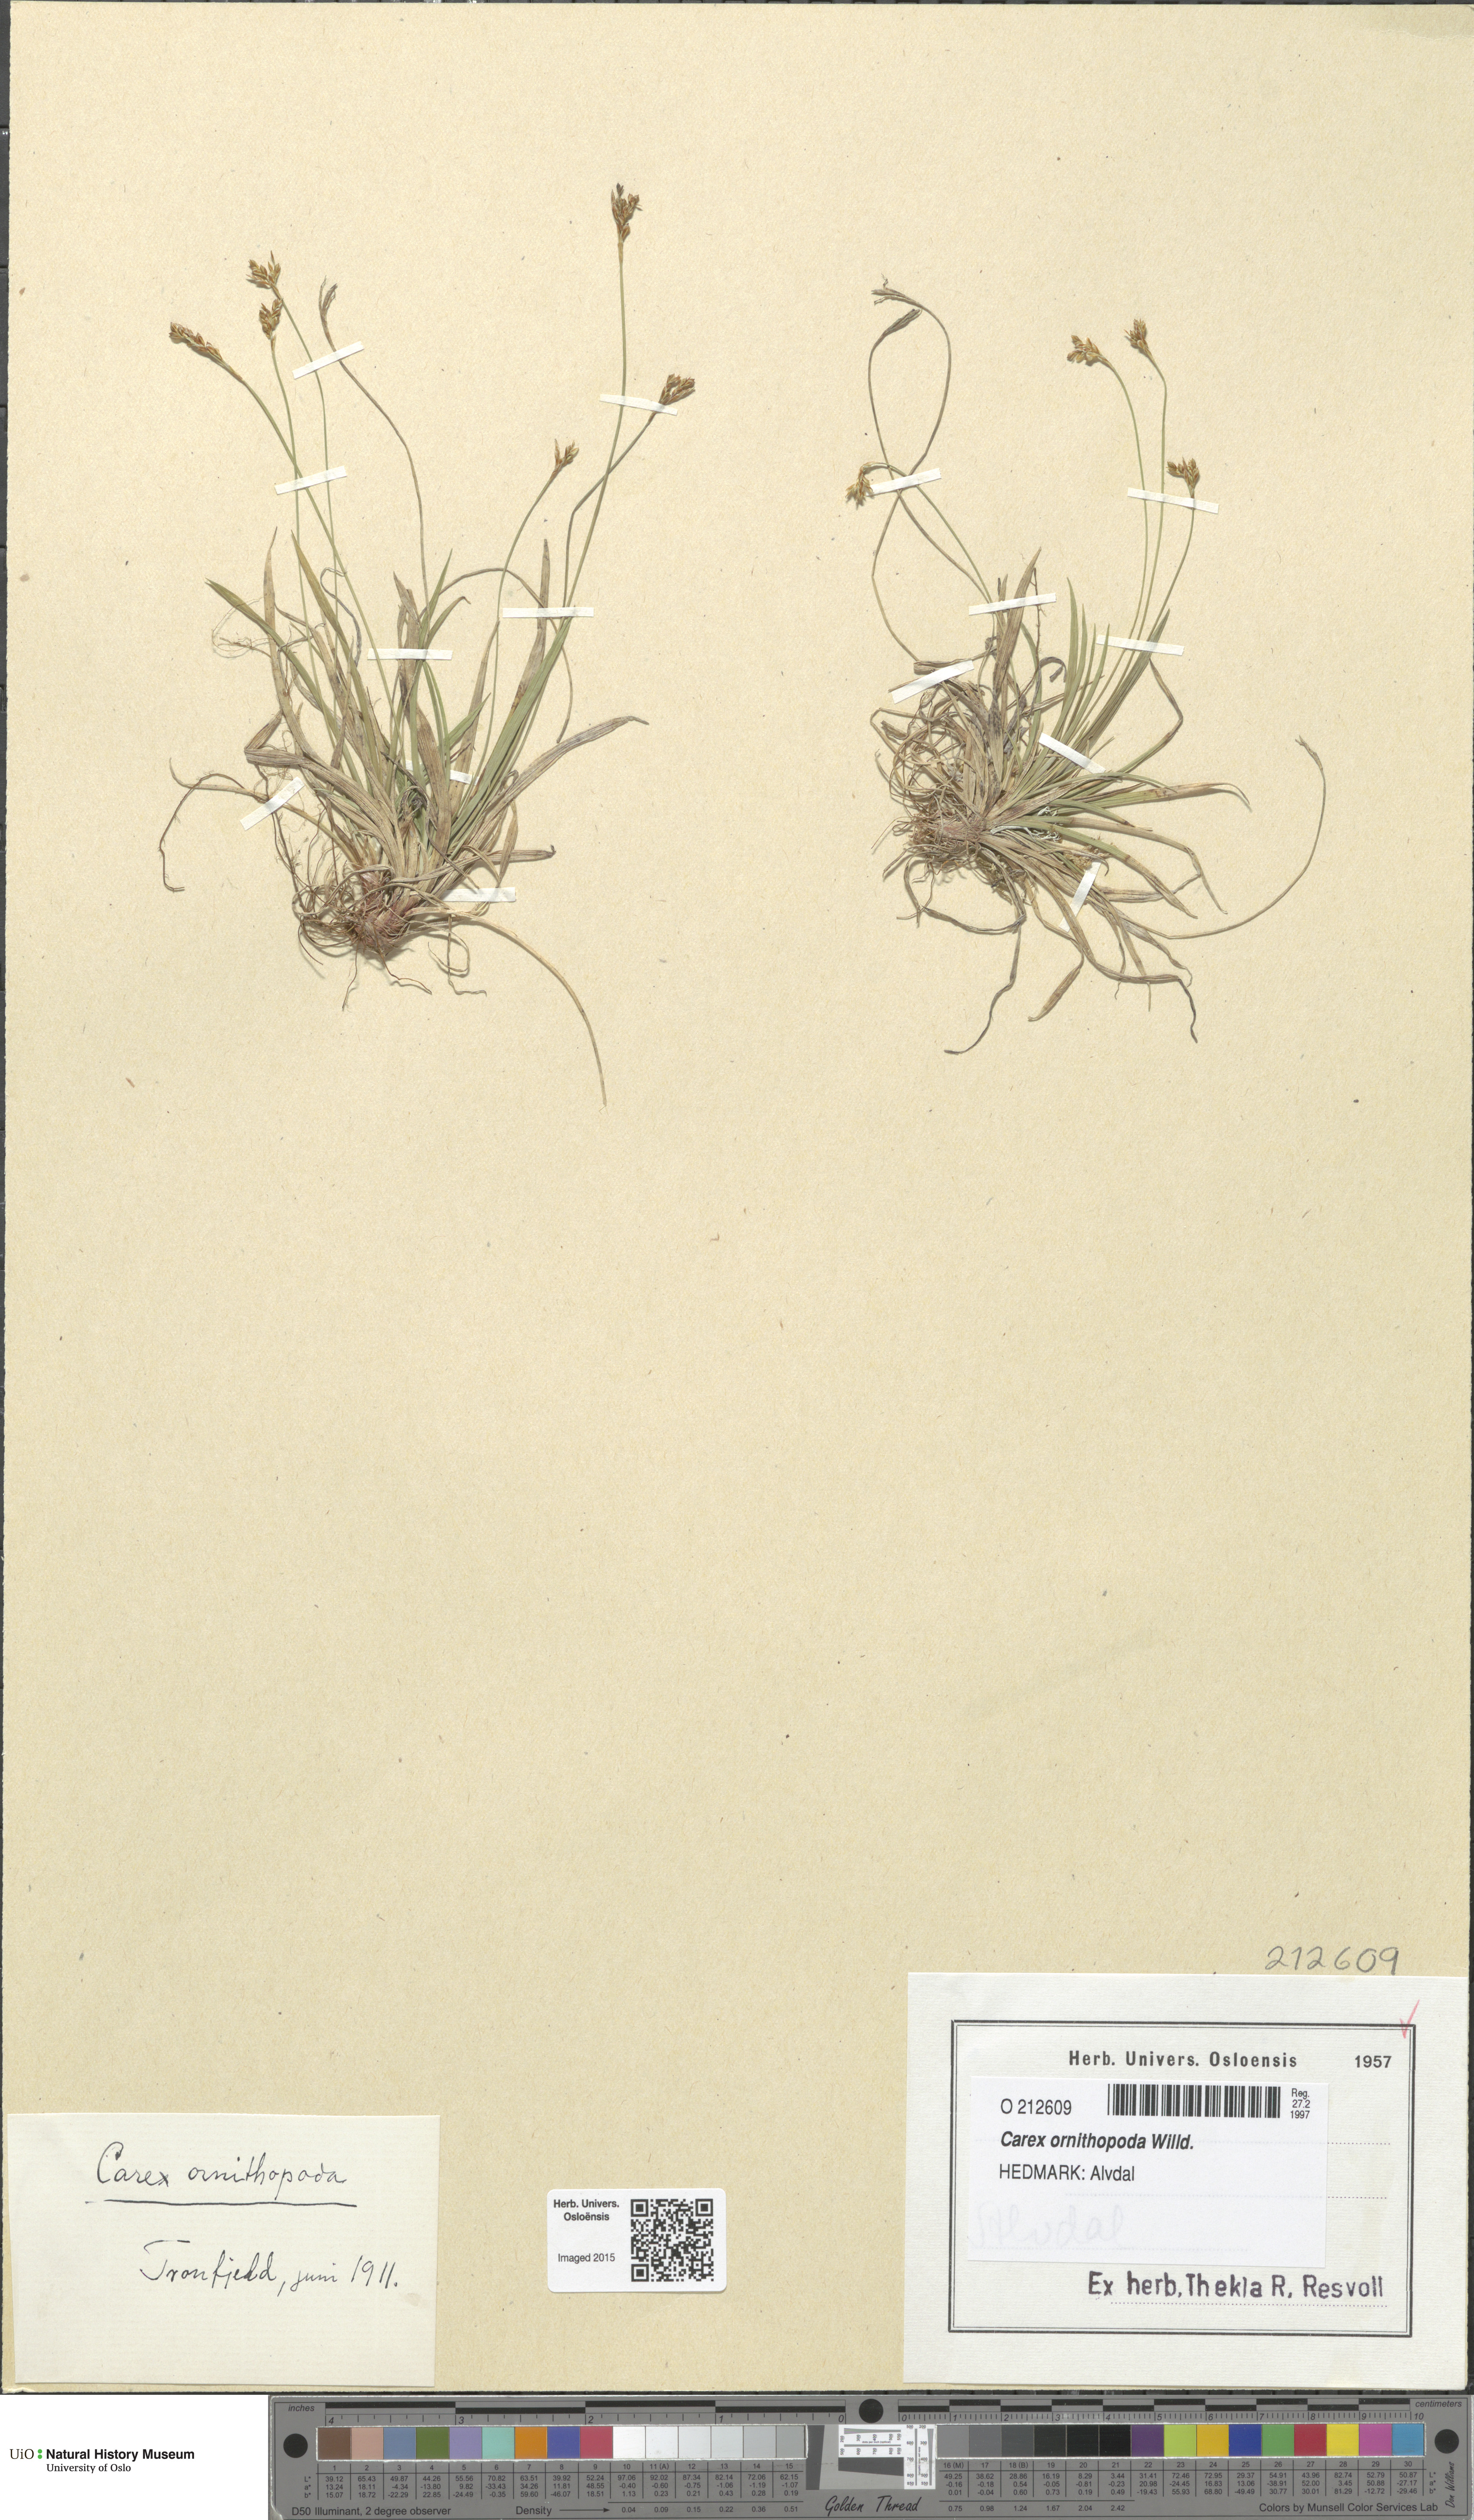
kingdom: Plantae
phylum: Tracheophyta
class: Liliopsida
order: Poales
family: Cyperaceae
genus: Carex
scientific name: Carex ornithopoda
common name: Bird's-foot sedge
